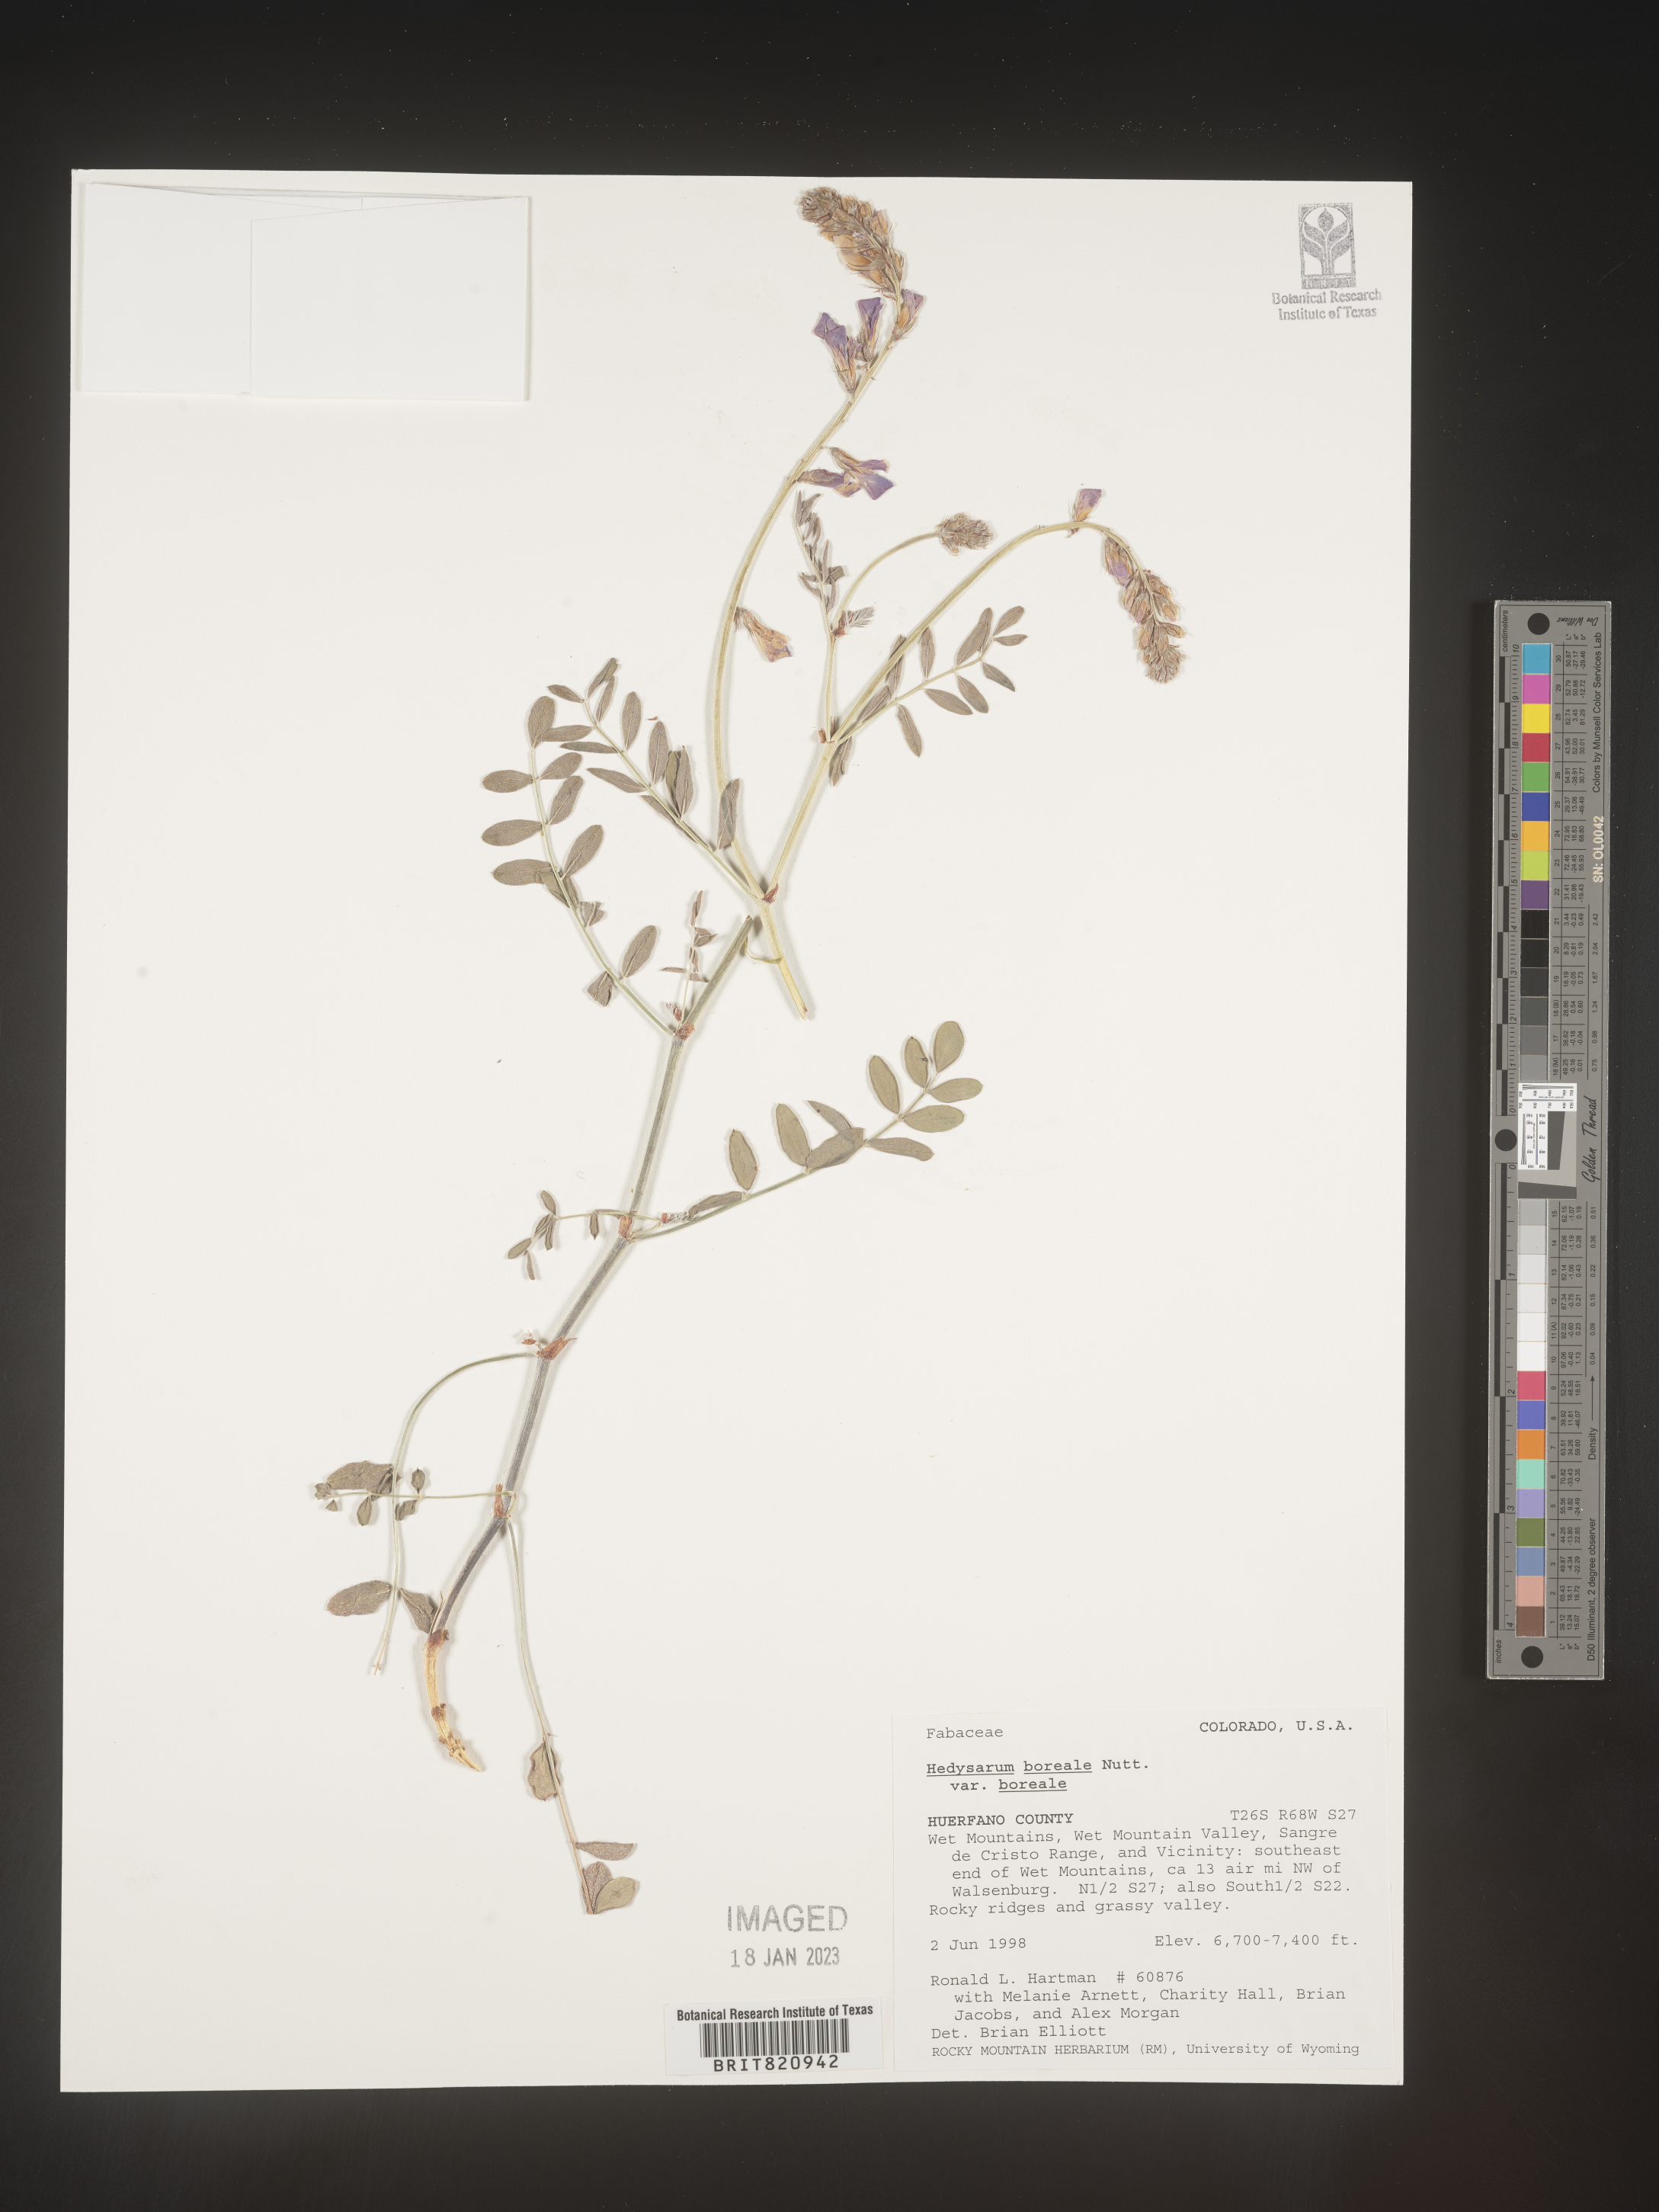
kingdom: Plantae
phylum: Tracheophyta
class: Magnoliopsida
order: Fabales
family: Fabaceae
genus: Hedysarum
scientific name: Hedysarum boreale
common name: Northern sweet-vetch
